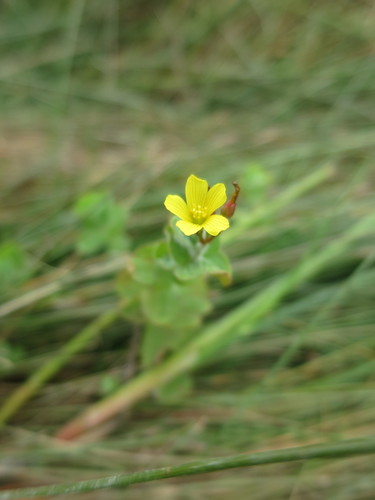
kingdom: Plantae
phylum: Tracheophyta
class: Magnoliopsida
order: Malpighiales
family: Hypericaceae
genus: Hypericum
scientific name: Hypericum elodes
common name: Marsh st. john's-wort
